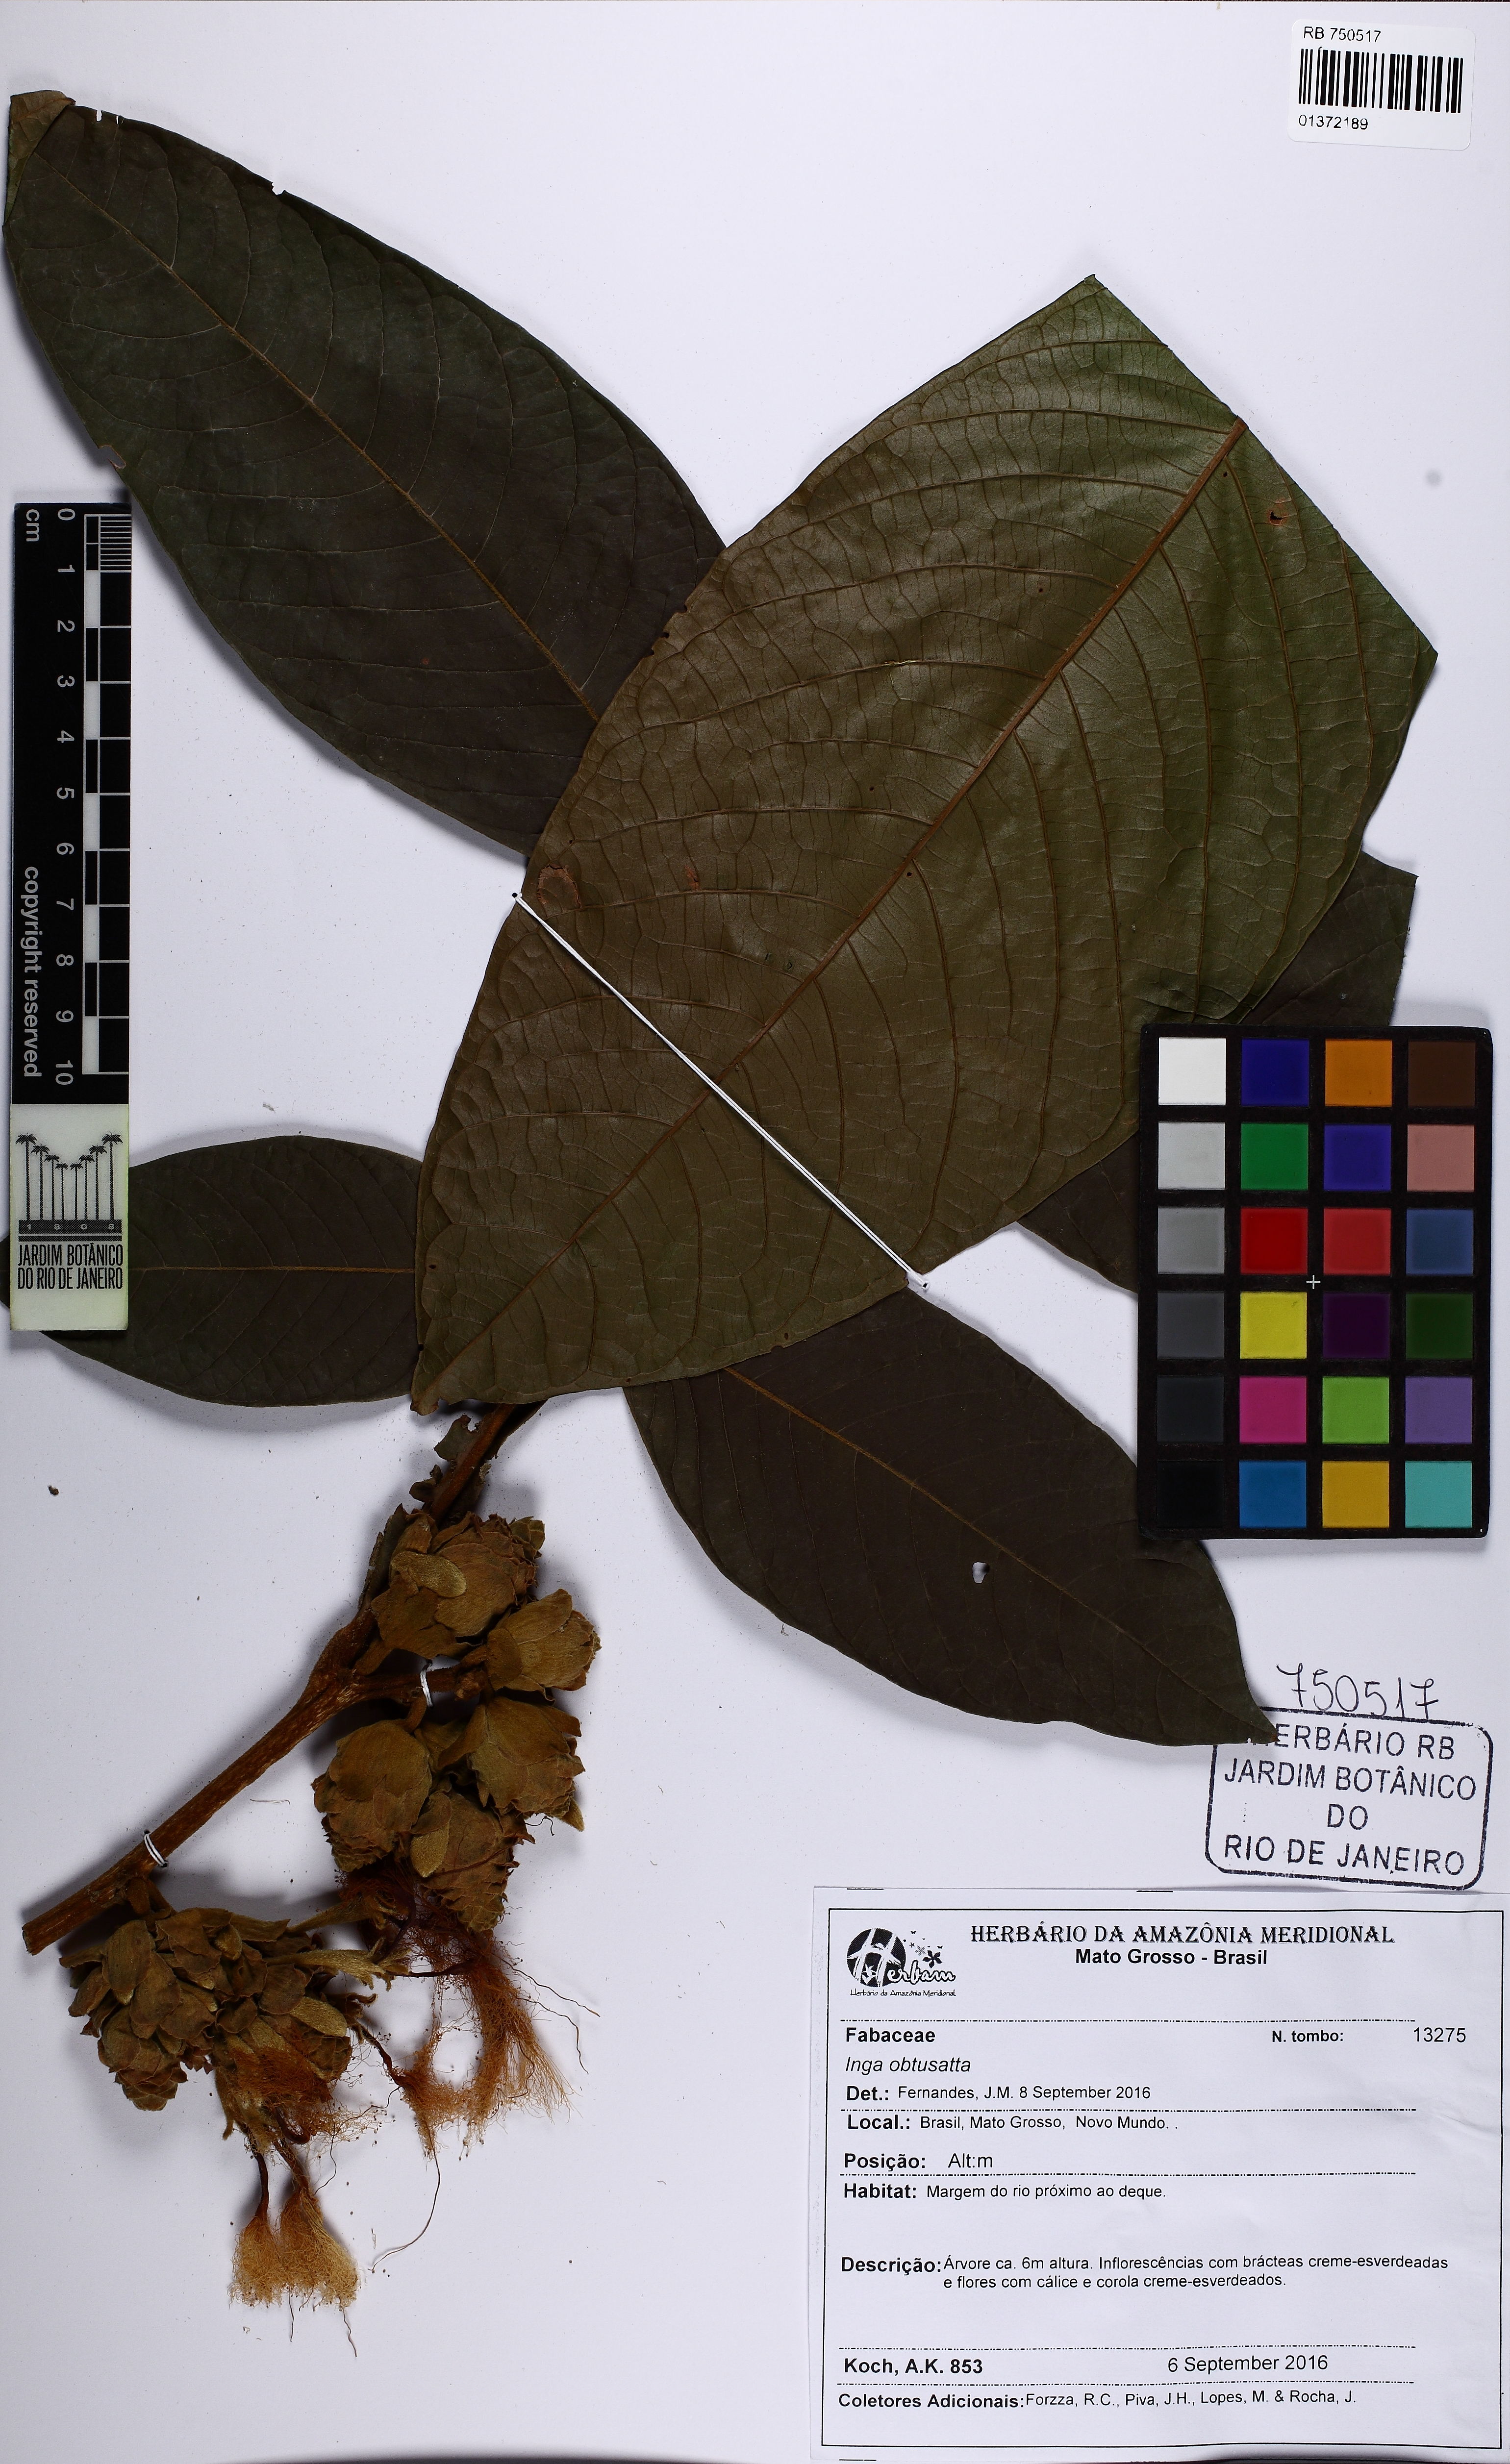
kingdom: Plantae
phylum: Tracheophyta
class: Magnoliopsida
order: Fabales
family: Fabaceae
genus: Inga
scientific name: Inga obtusata
